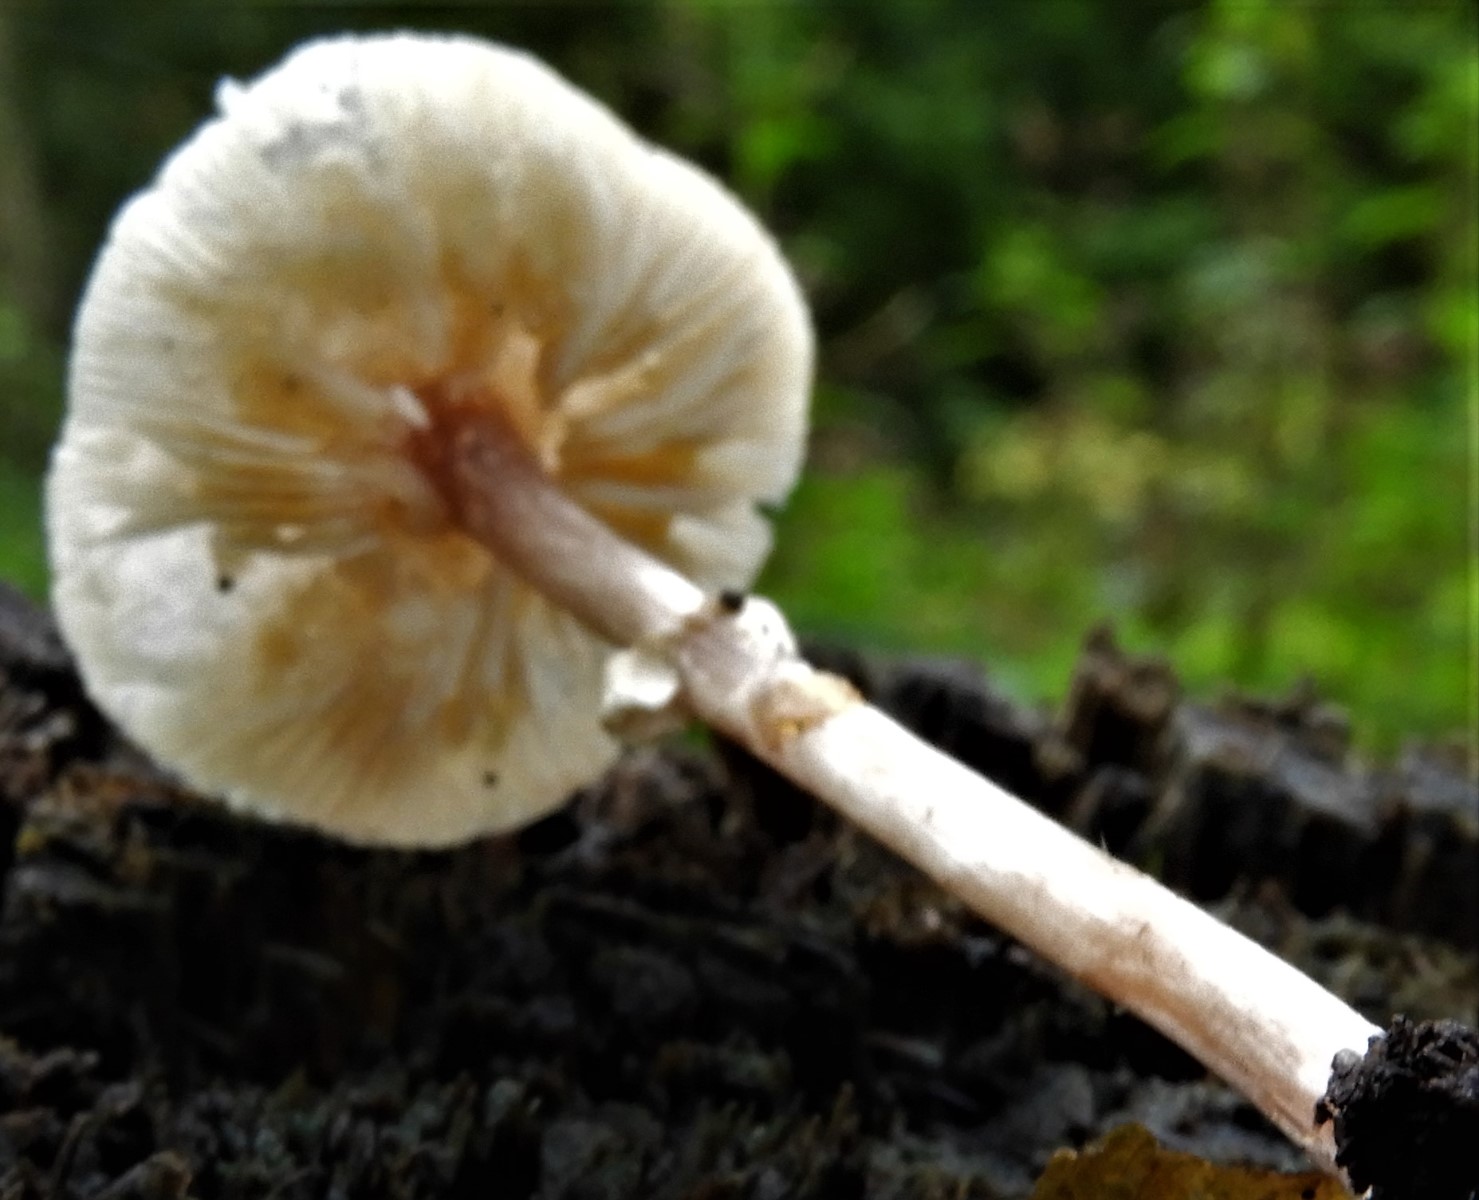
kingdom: Fungi
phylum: Basidiomycota
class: Agaricomycetes
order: Agaricales
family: Agaricaceae
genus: Lepiota
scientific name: Lepiota cristata
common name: stinkende parasolhat
